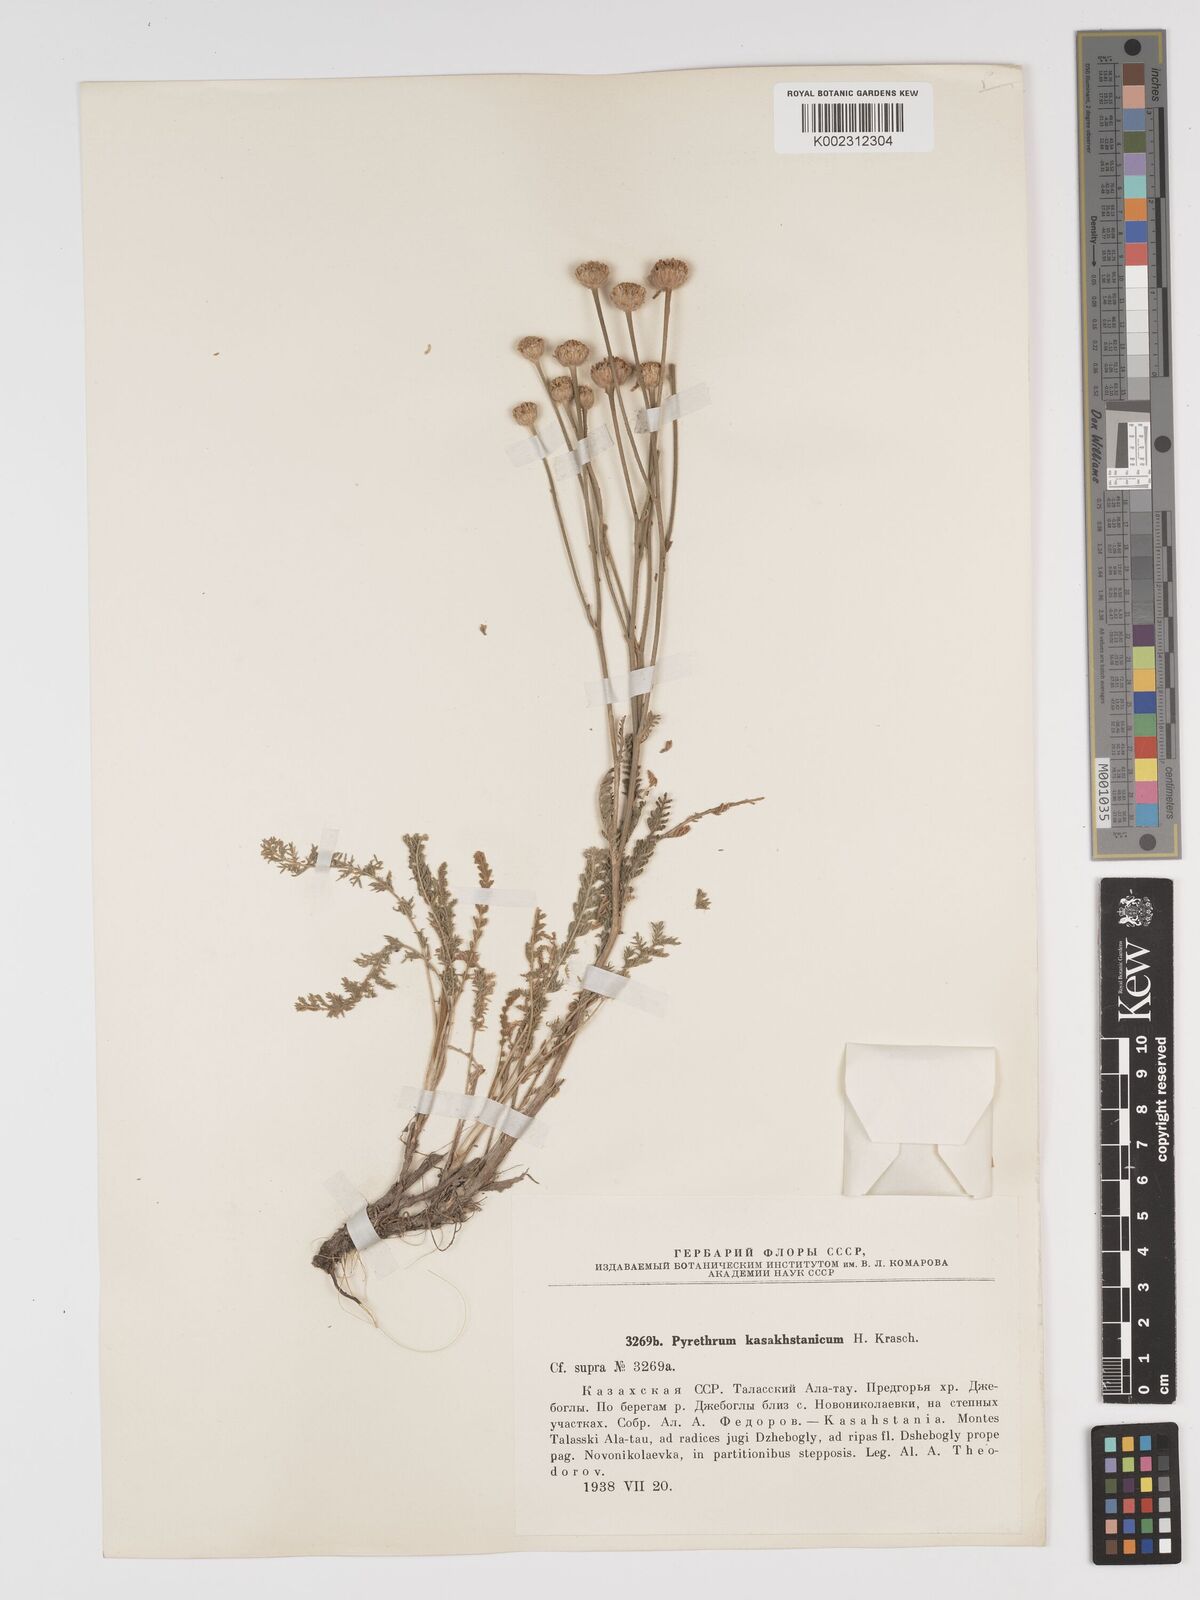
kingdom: Plantae
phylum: Tracheophyta
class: Magnoliopsida
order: Asterales
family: Asteraceae
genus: Tanacetum
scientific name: Tanacetum barclayanum
